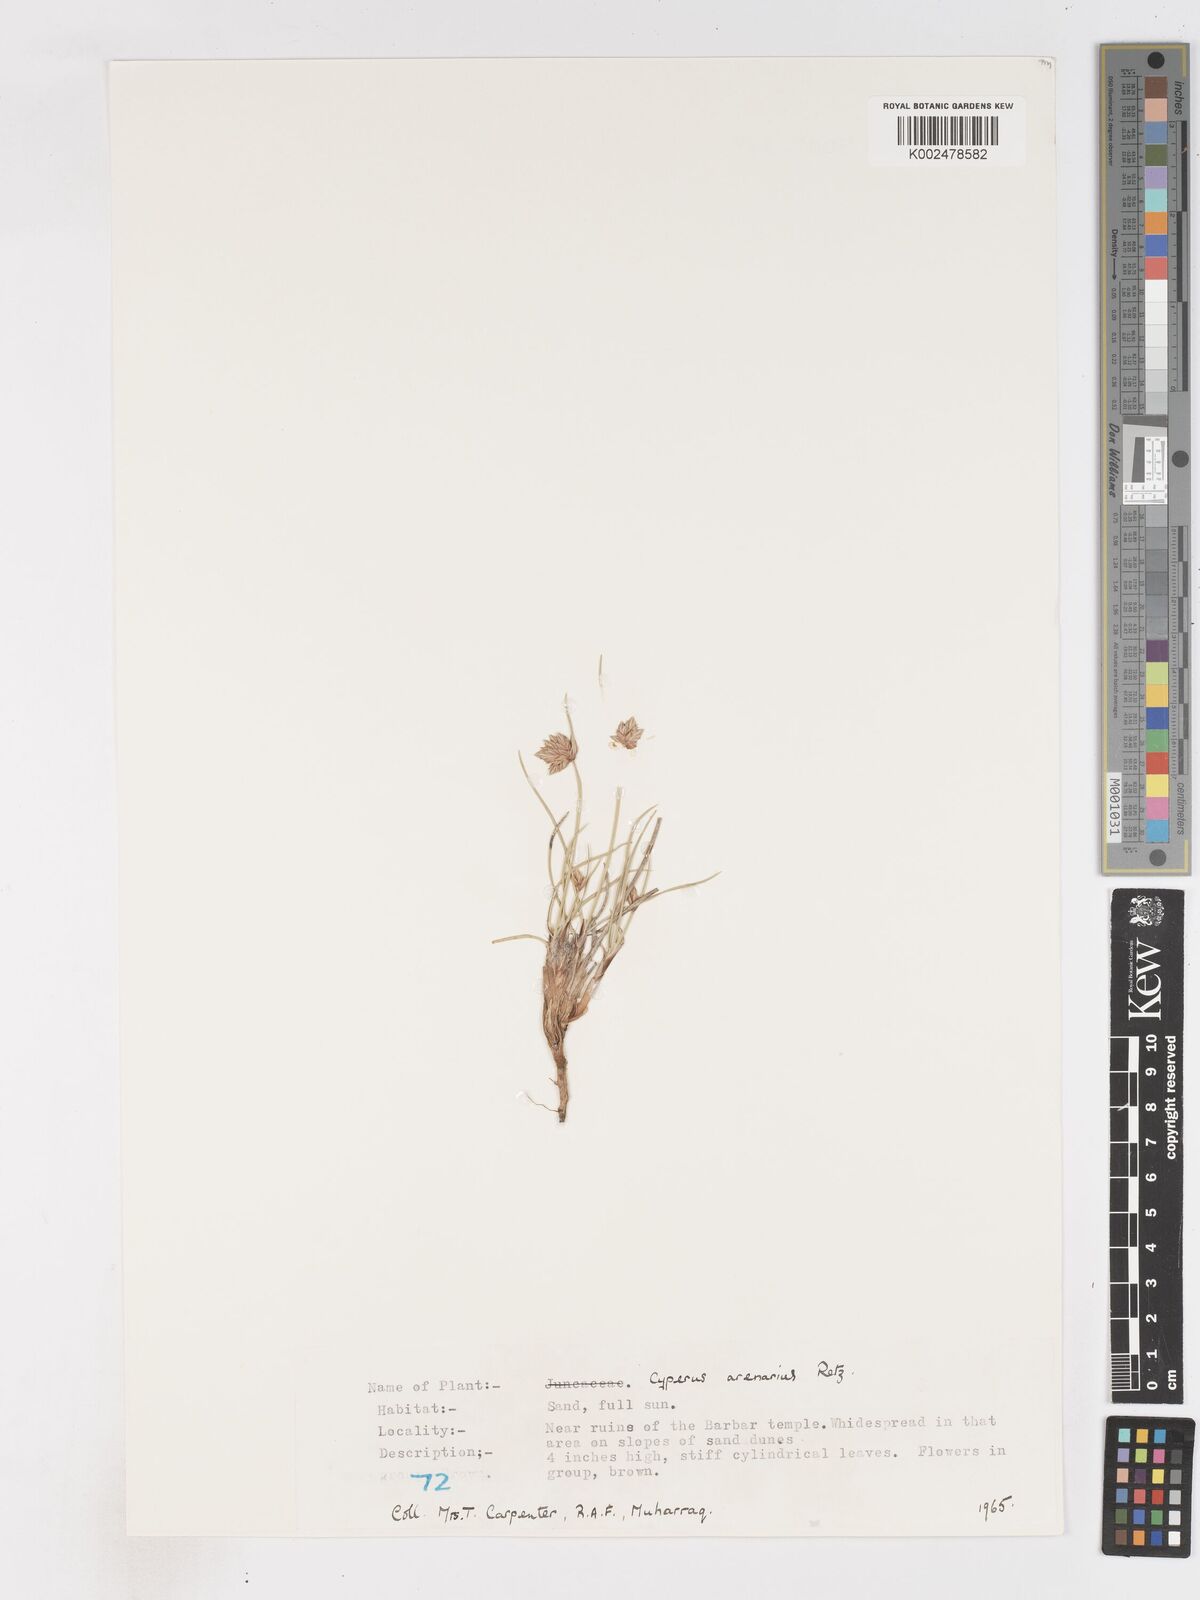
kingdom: Plantae
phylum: Tracheophyta
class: Liliopsida
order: Poales
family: Cyperaceae
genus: Cyperus
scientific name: Cyperus arenarius
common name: Dwarf sedge
